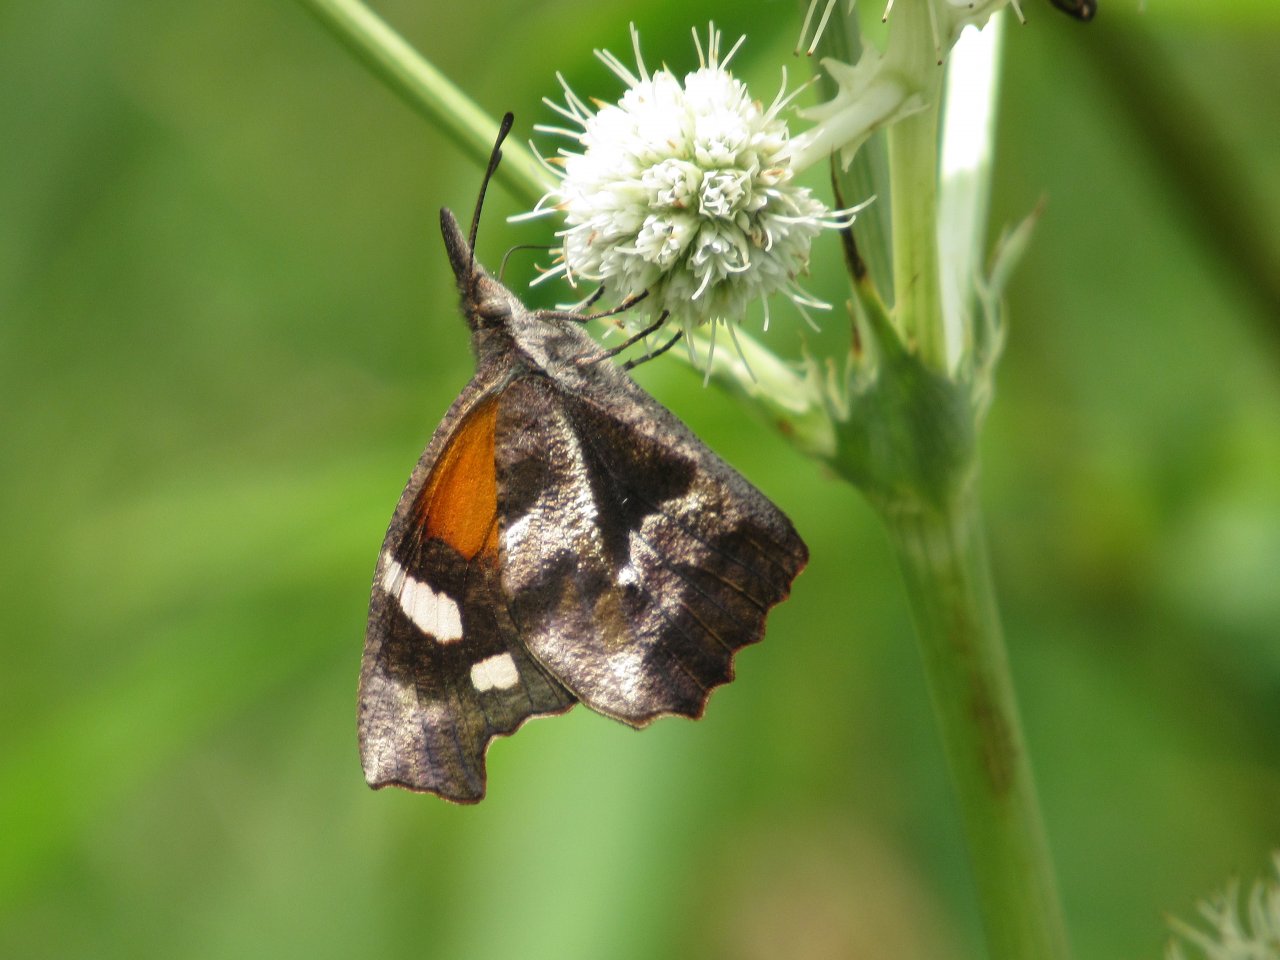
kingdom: Animalia
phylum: Arthropoda
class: Insecta
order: Lepidoptera
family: Nymphalidae
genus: Libytheana
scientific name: Libytheana carinenta
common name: American Snout
